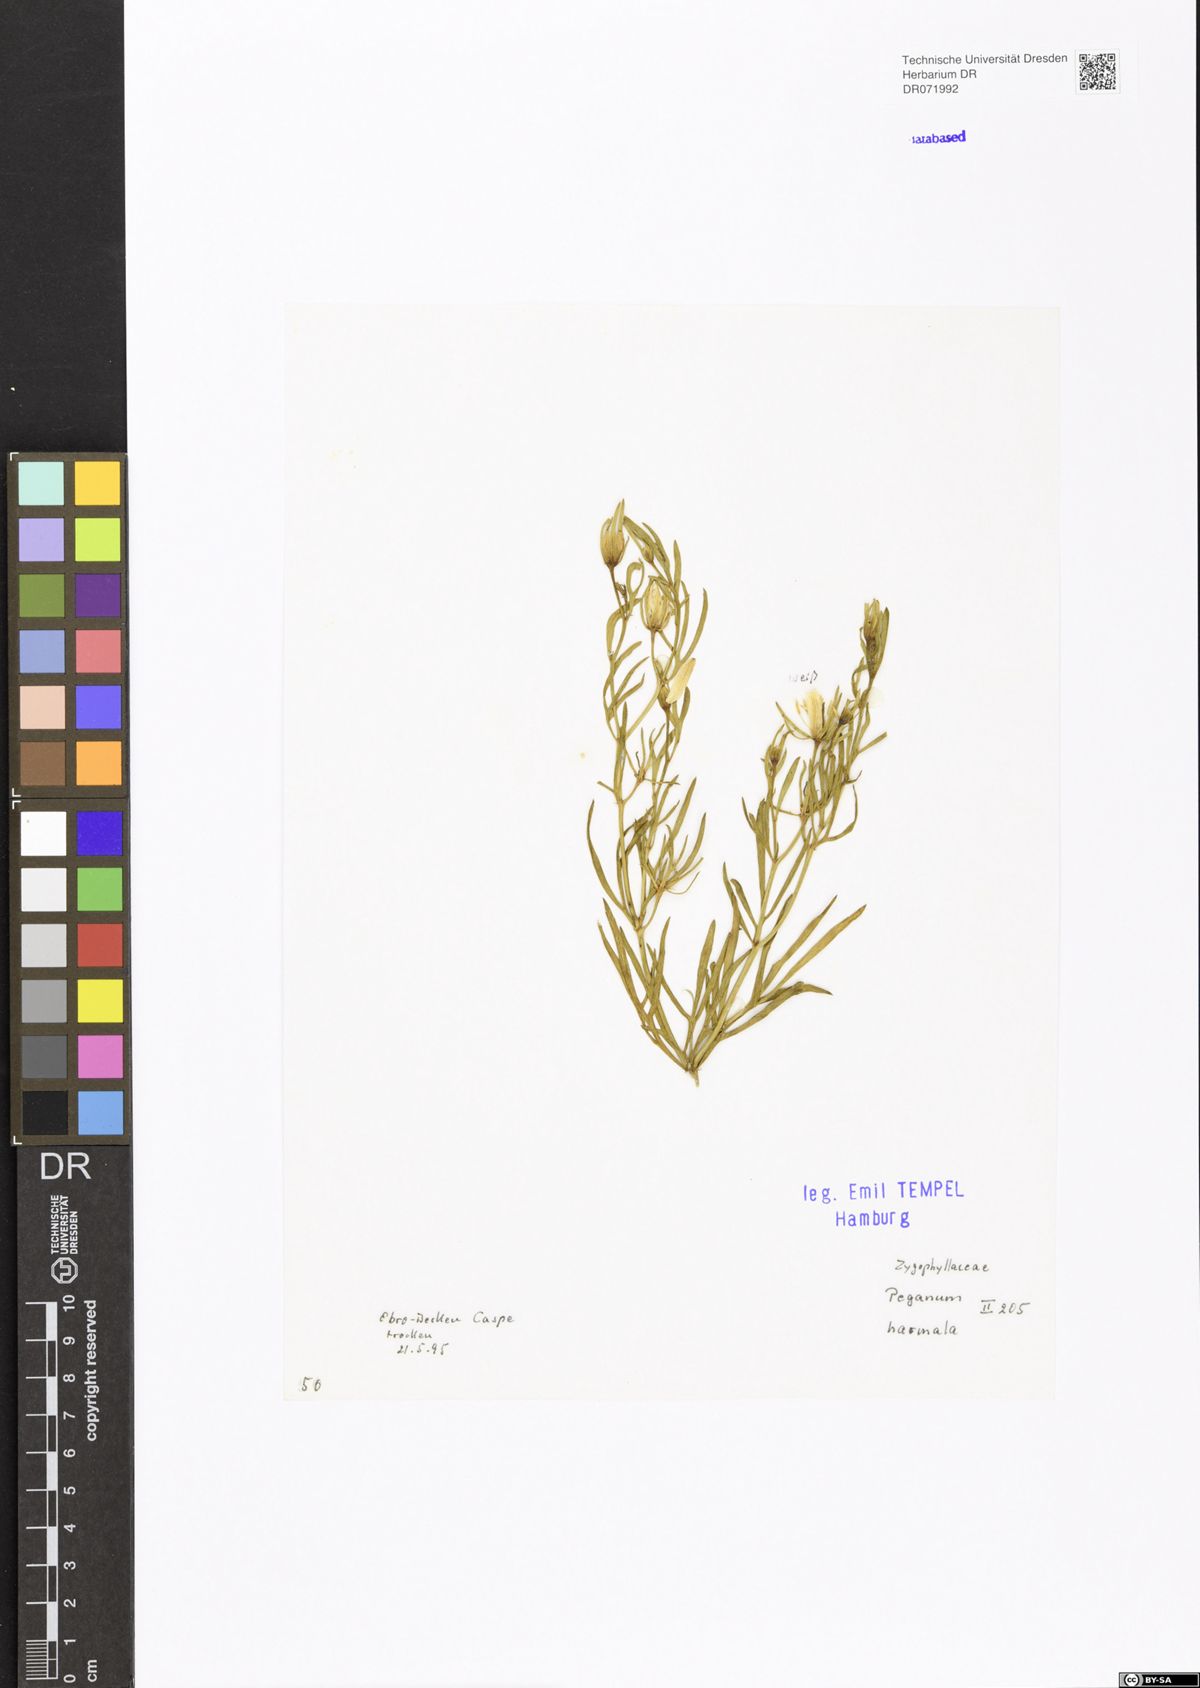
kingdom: Plantae
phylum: Tracheophyta
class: Magnoliopsida
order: Sapindales
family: Tetradiclidaceae
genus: Peganum
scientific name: Peganum harmala
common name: Harmal peganum
